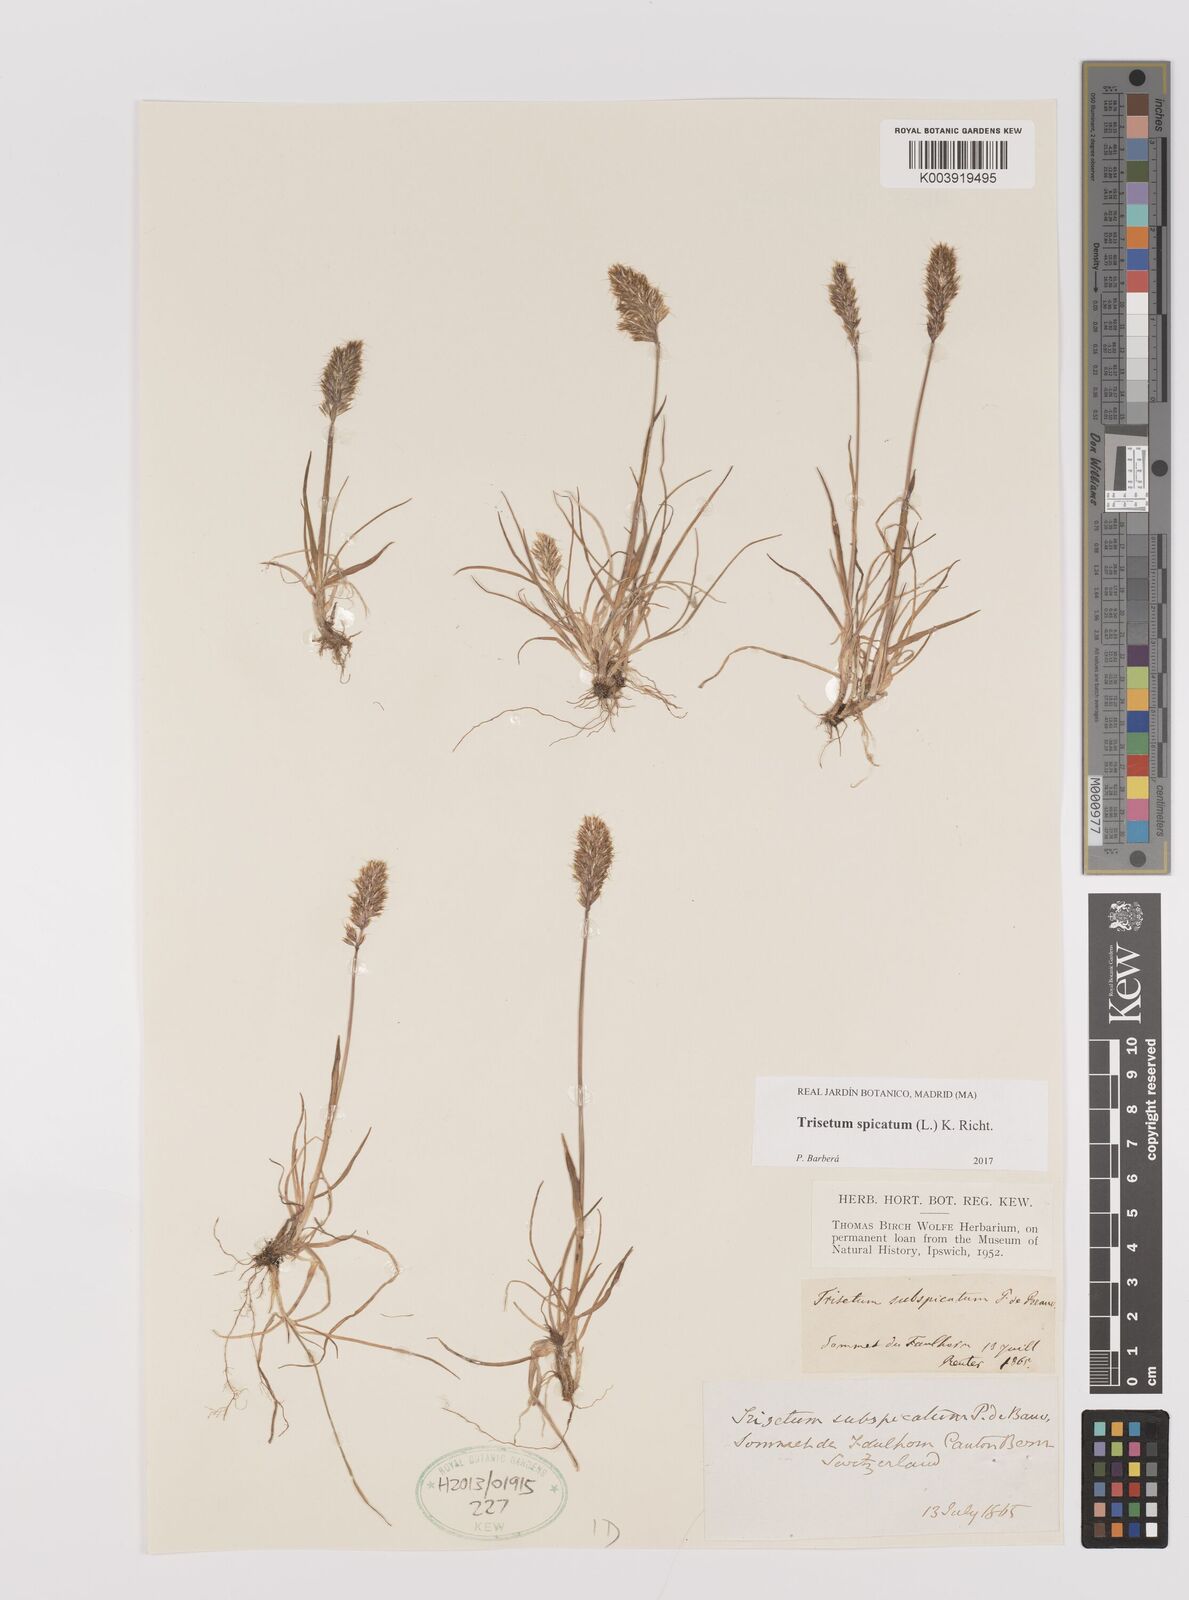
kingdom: Plantae
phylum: Tracheophyta
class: Liliopsida
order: Poales
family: Poaceae
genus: Koeleria
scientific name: Koeleria spicata
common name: Mountain trisetum
